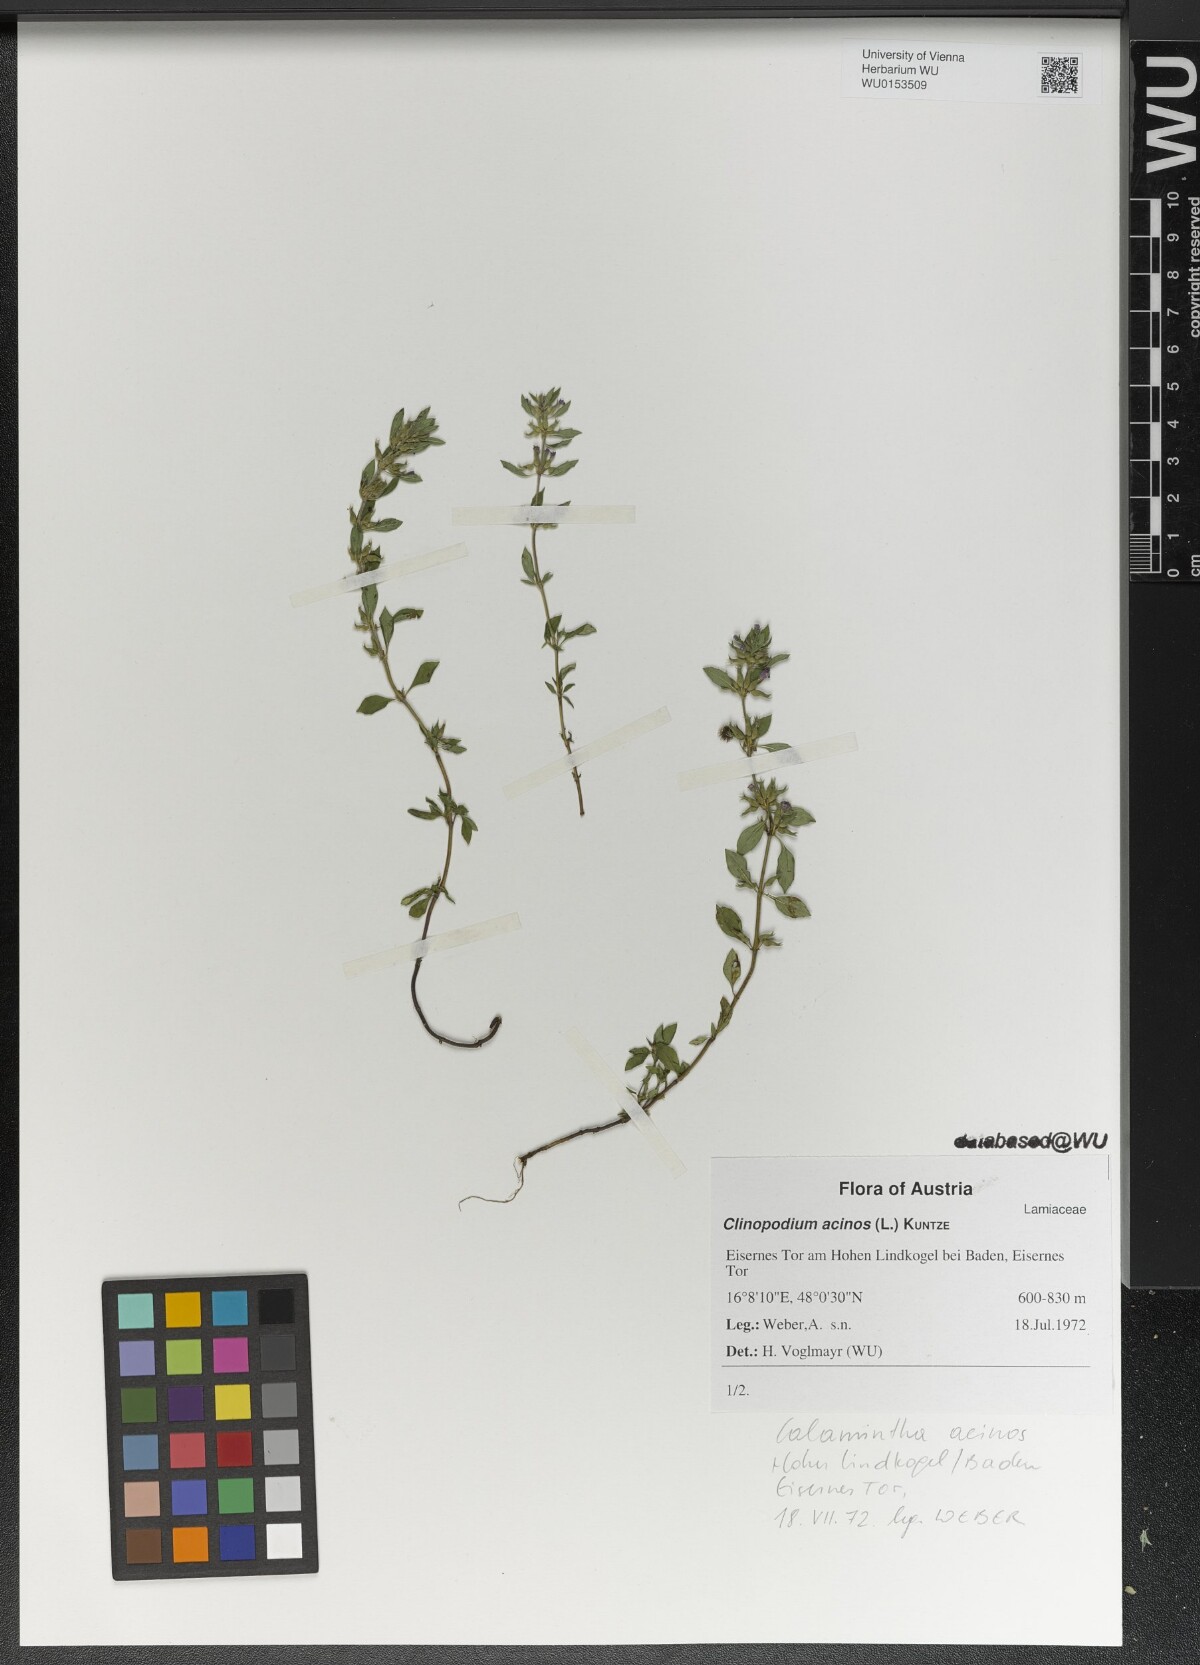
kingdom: Plantae
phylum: Tracheophyta
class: Magnoliopsida
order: Lamiales
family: Lamiaceae
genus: Clinopodium
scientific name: Clinopodium acinos
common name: Basil thyme
